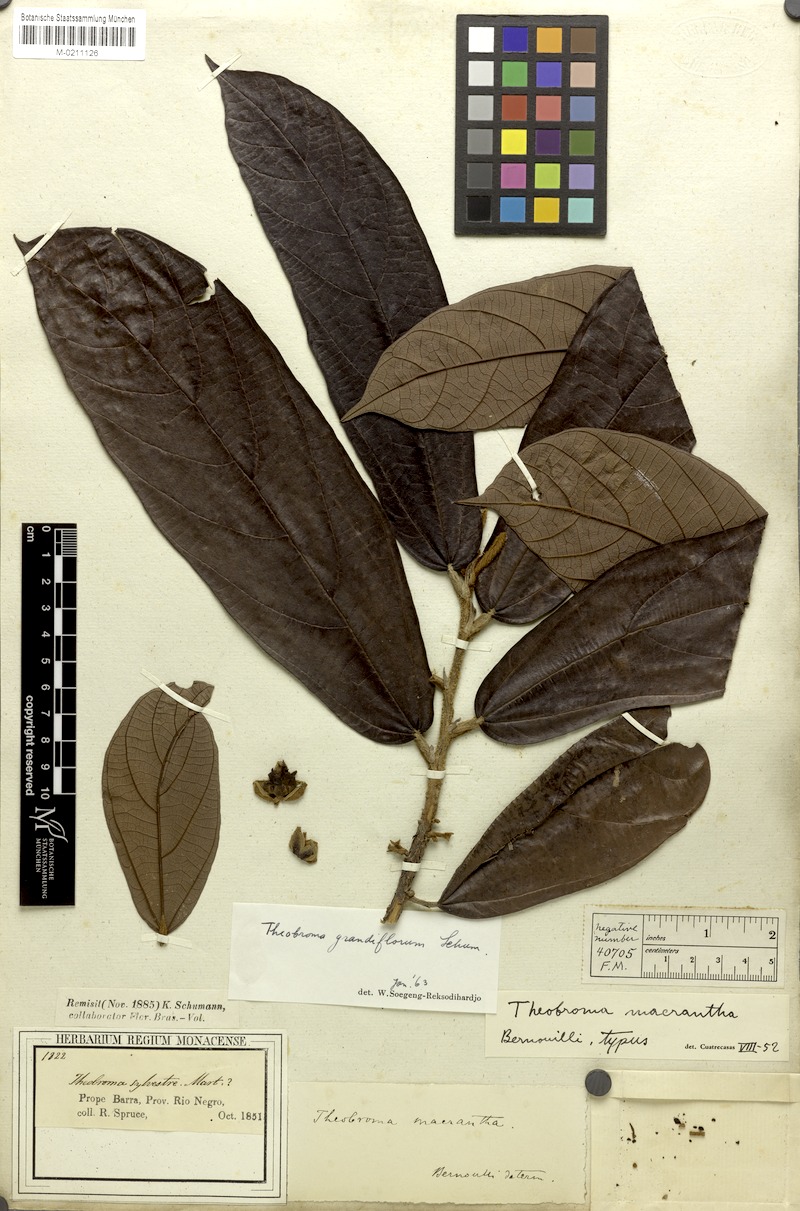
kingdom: Plantae
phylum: Tracheophyta
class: Magnoliopsida
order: Malvales
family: Malvaceae
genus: Theobroma
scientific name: Theobroma grandiflorum
